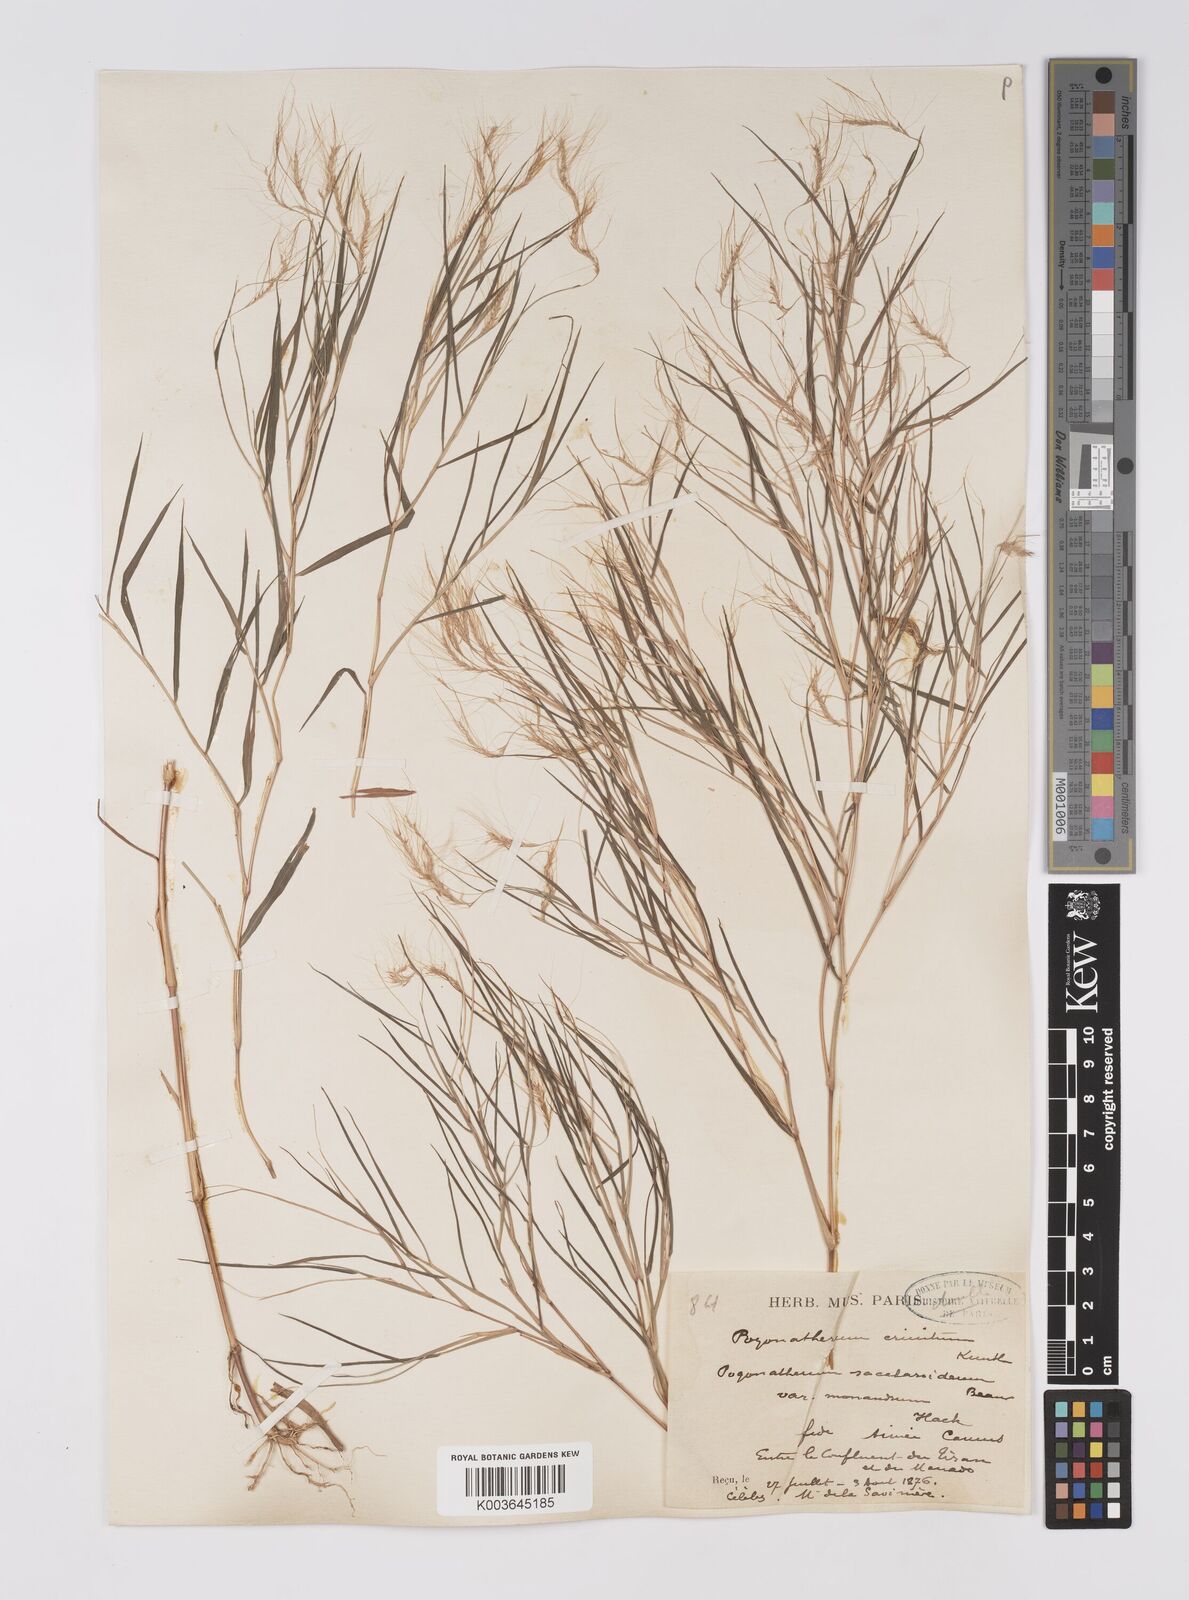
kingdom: Plantae
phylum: Tracheophyta
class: Liliopsida
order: Poales
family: Poaceae
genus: Pogonatherum
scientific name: Pogonatherum crinitum
